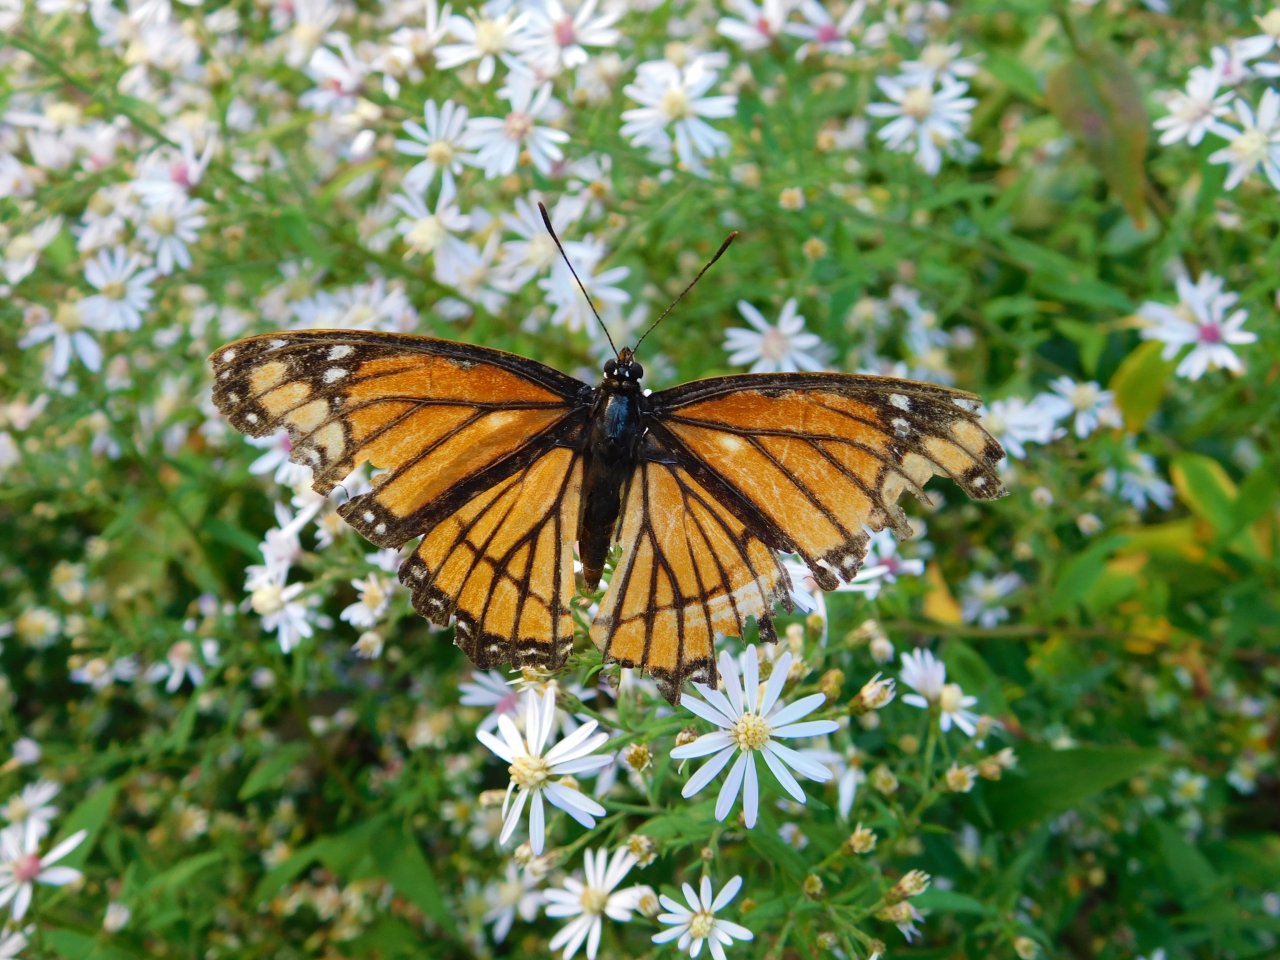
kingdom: Animalia
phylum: Arthropoda
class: Insecta
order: Lepidoptera
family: Nymphalidae
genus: Limenitis
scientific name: Limenitis archippus
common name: Viceroy
